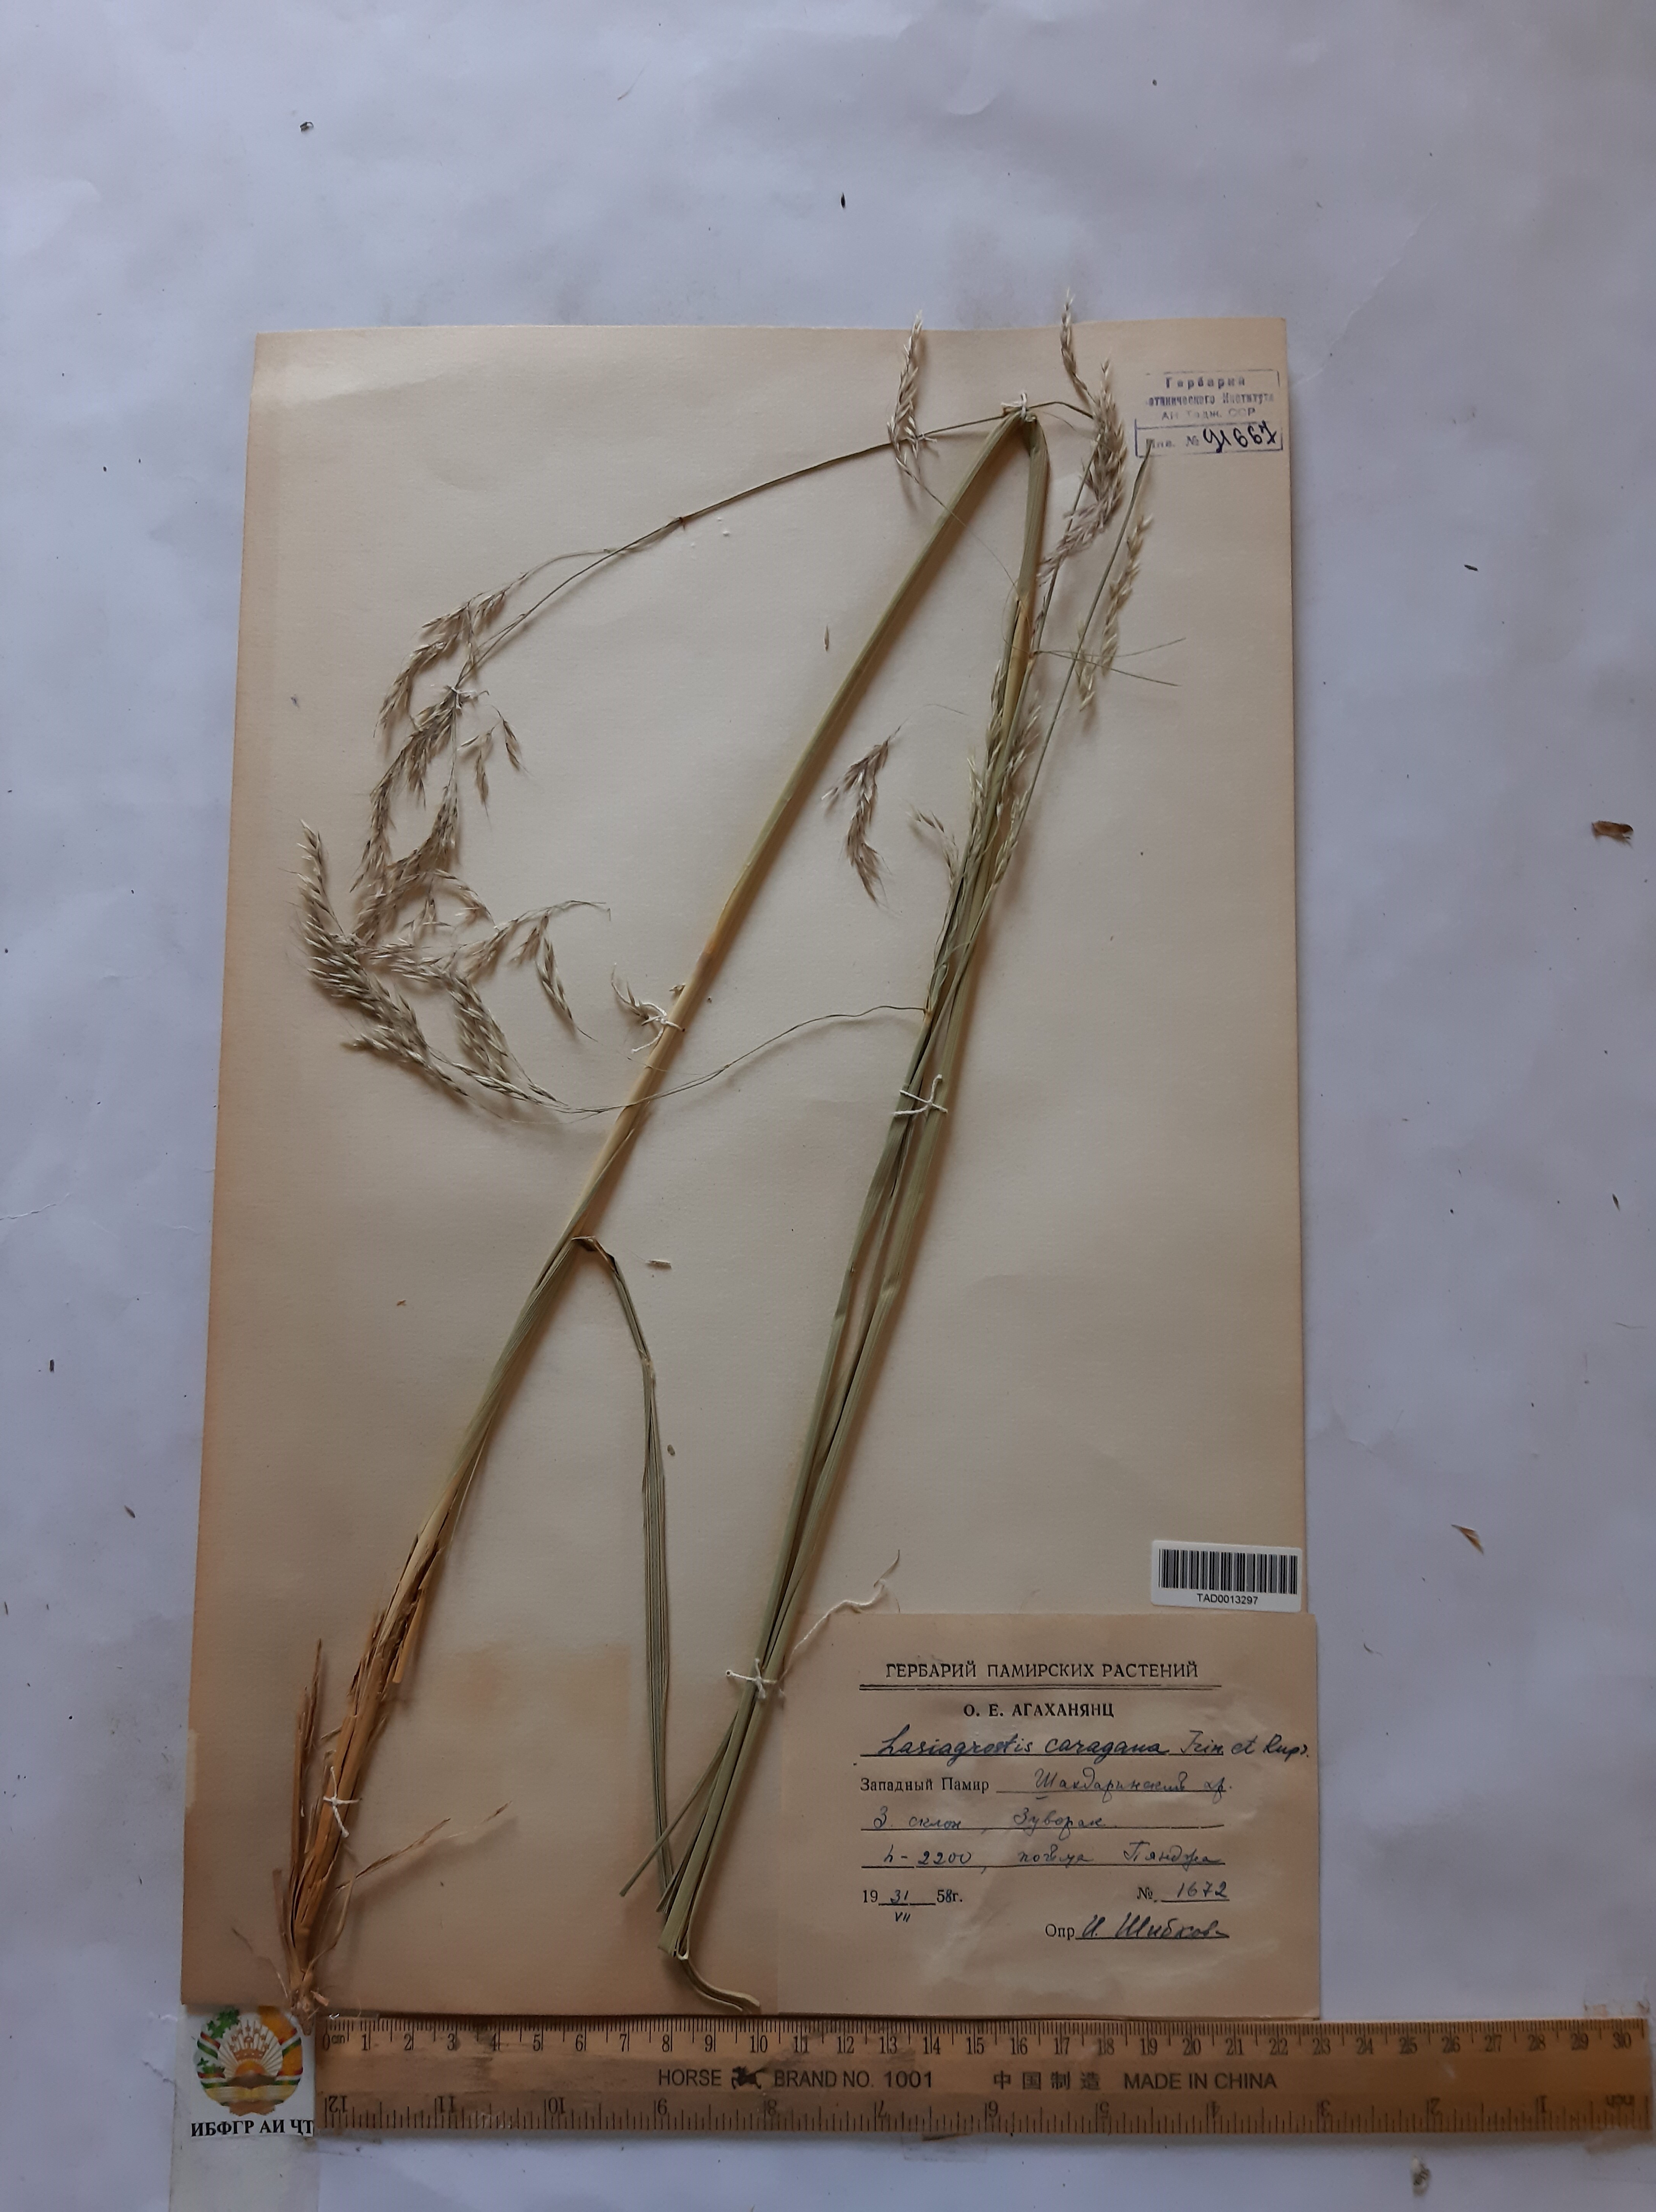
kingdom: Plantae
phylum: Tracheophyta
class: Liliopsida
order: Poales
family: Poaceae
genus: Stipa
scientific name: Stipa conferta
